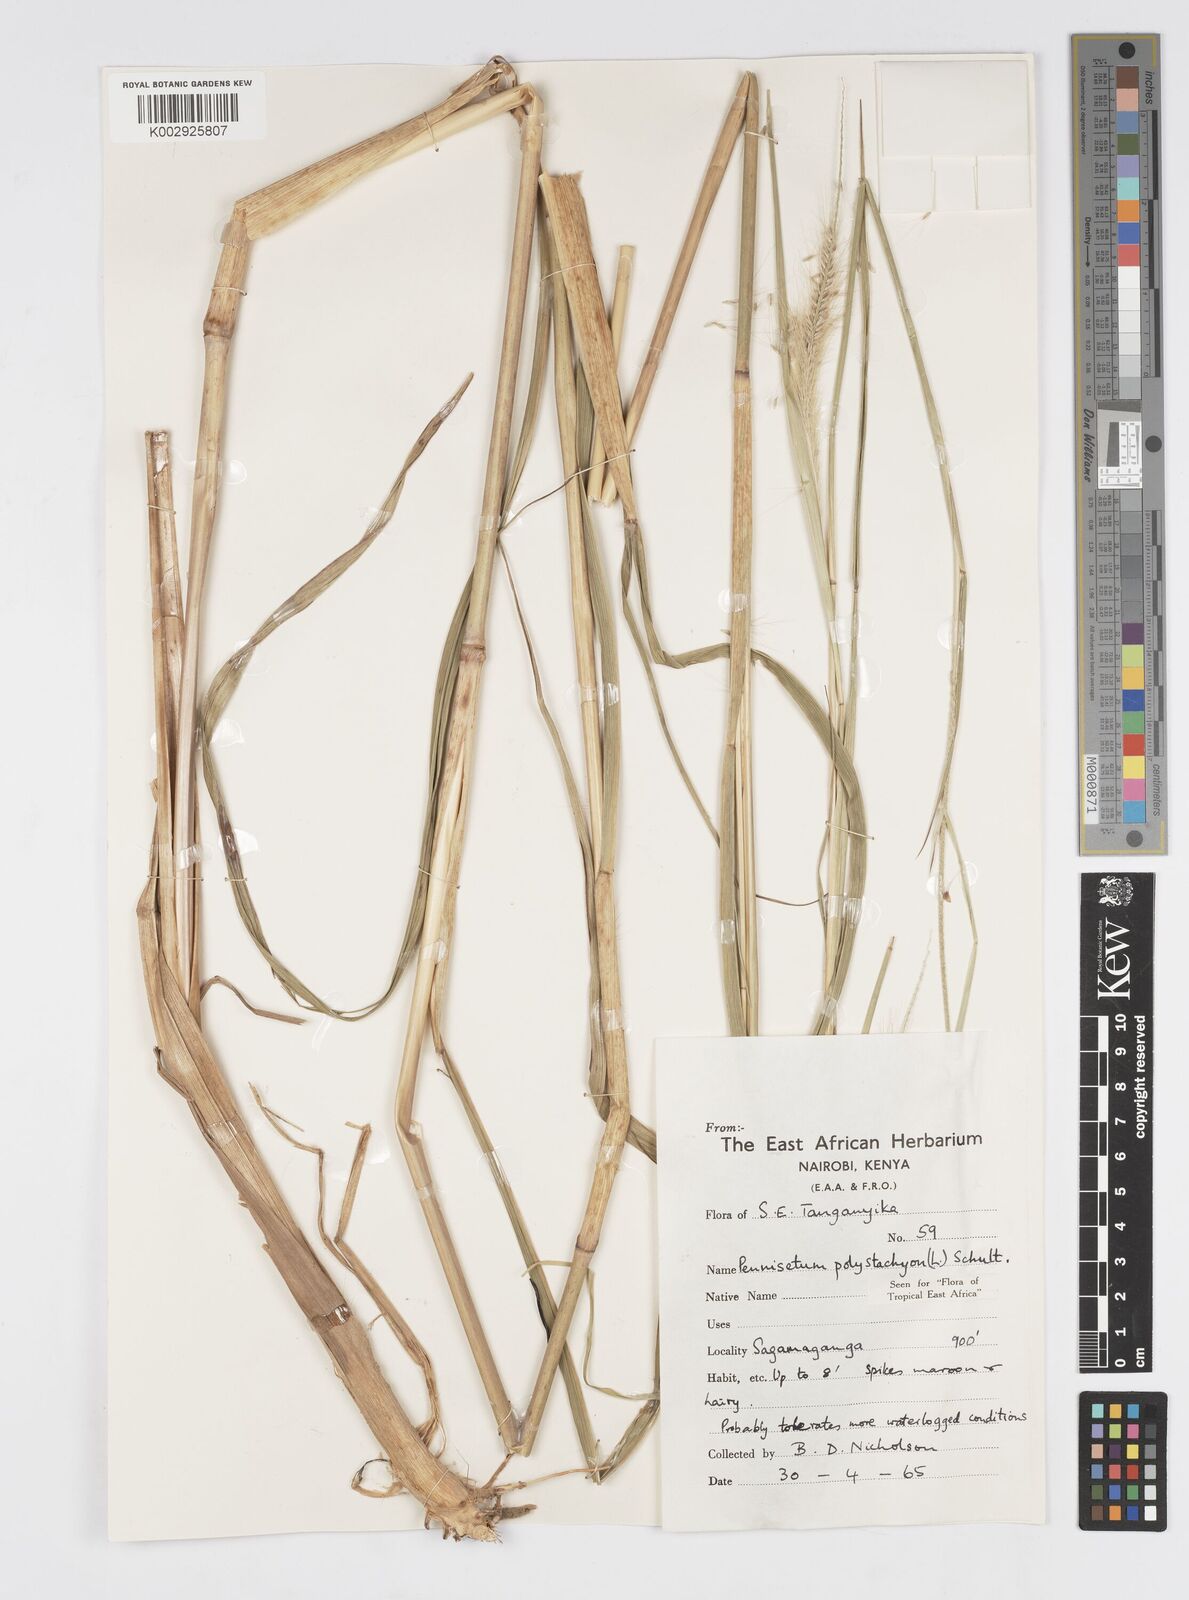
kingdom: Plantae
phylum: Tracheophyta
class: Liliopsida
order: Poales
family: Poaceae
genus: Setaria
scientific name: Setaria parviflora
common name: Knotroot bristle-grass
